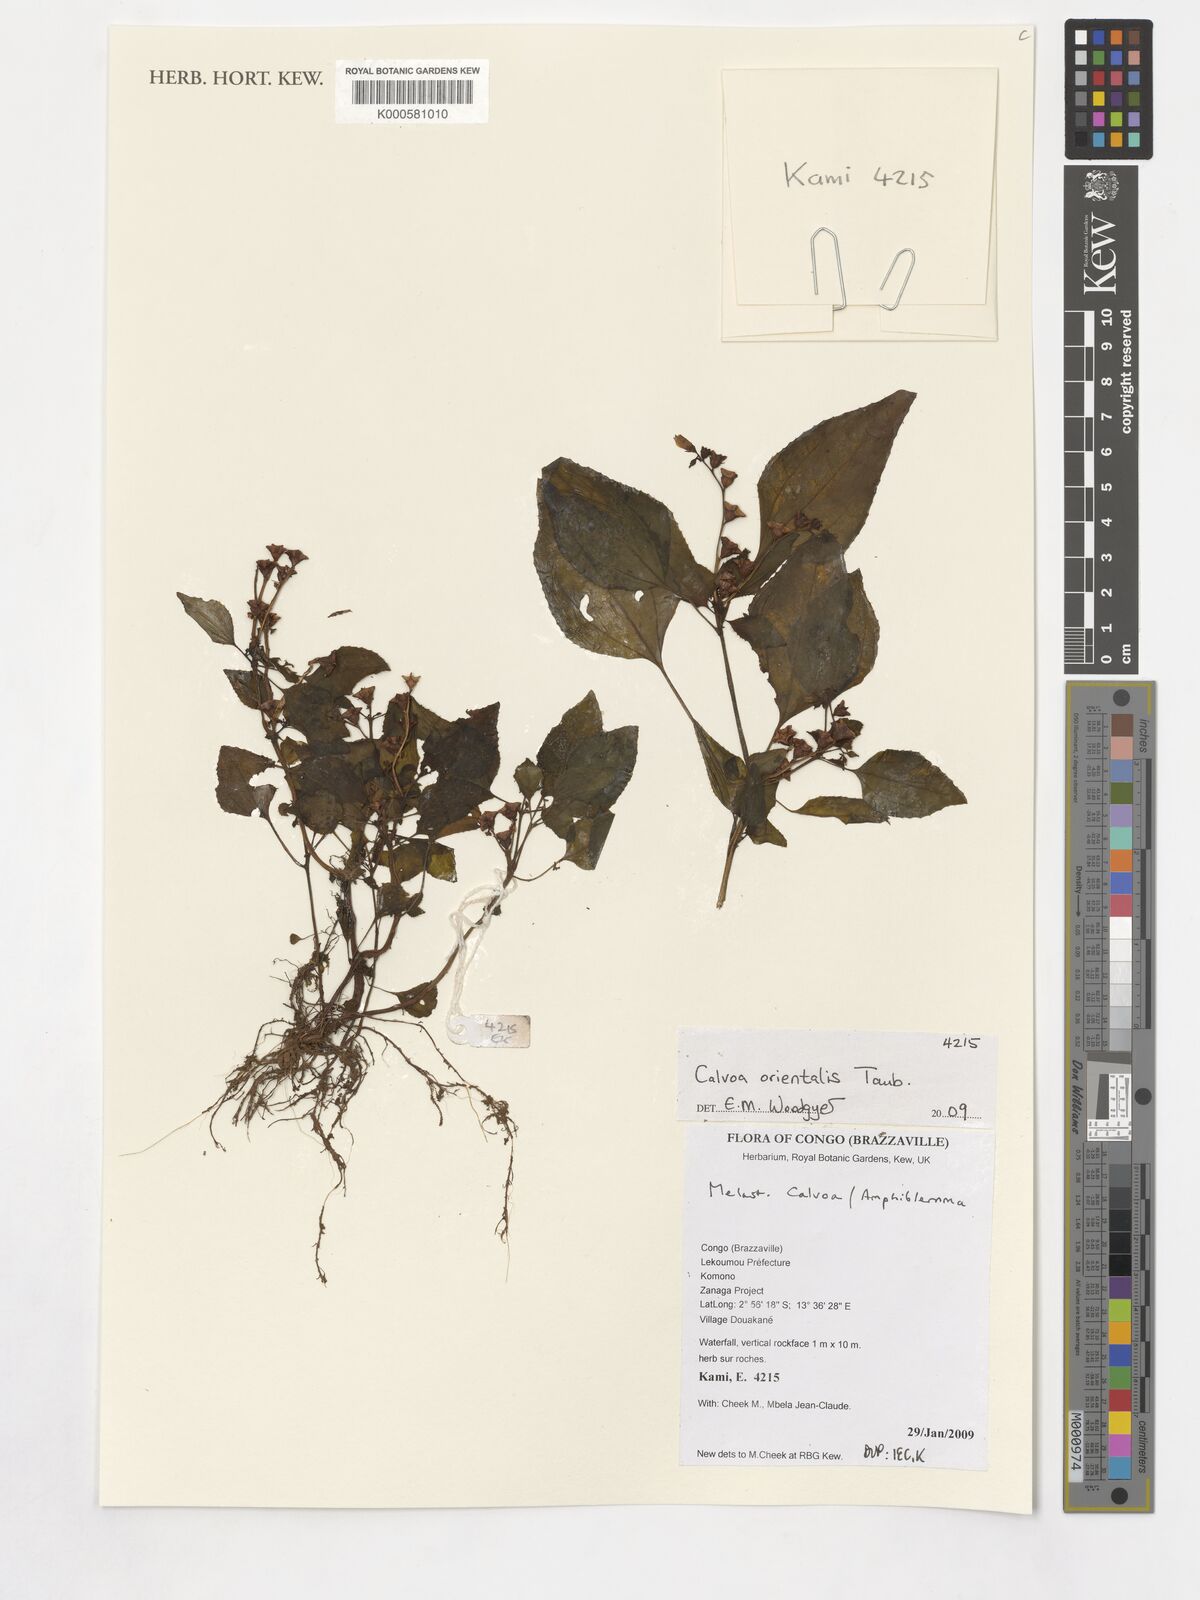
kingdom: Plantae
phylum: Tracheophyta
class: Magnoliopsida
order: Myrtales
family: Melastomataceae
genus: Calvoa
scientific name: Calvoa orientalis
